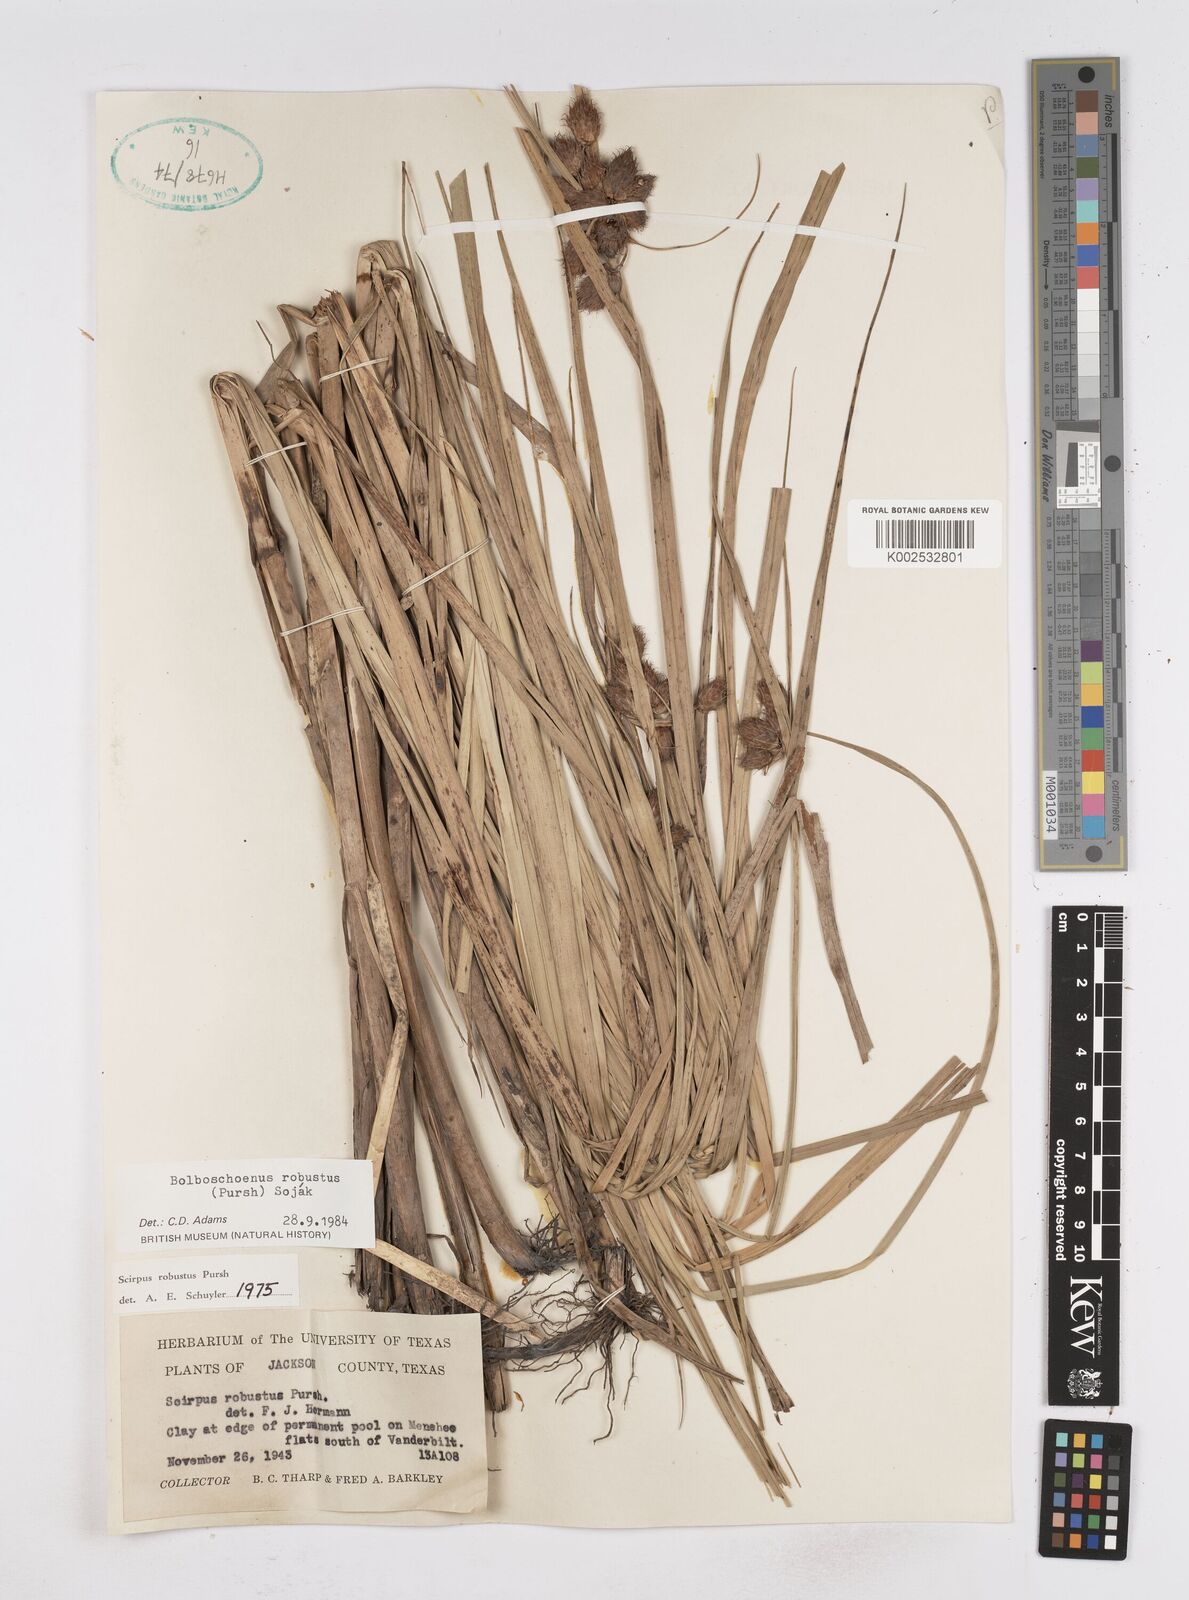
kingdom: Plantae
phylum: Tracheophyta
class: Liliopsida
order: Poales
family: Cyperaceae
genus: Bolboschoenus
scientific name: Bolboschoenus robustus
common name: Seacoast bulrush
